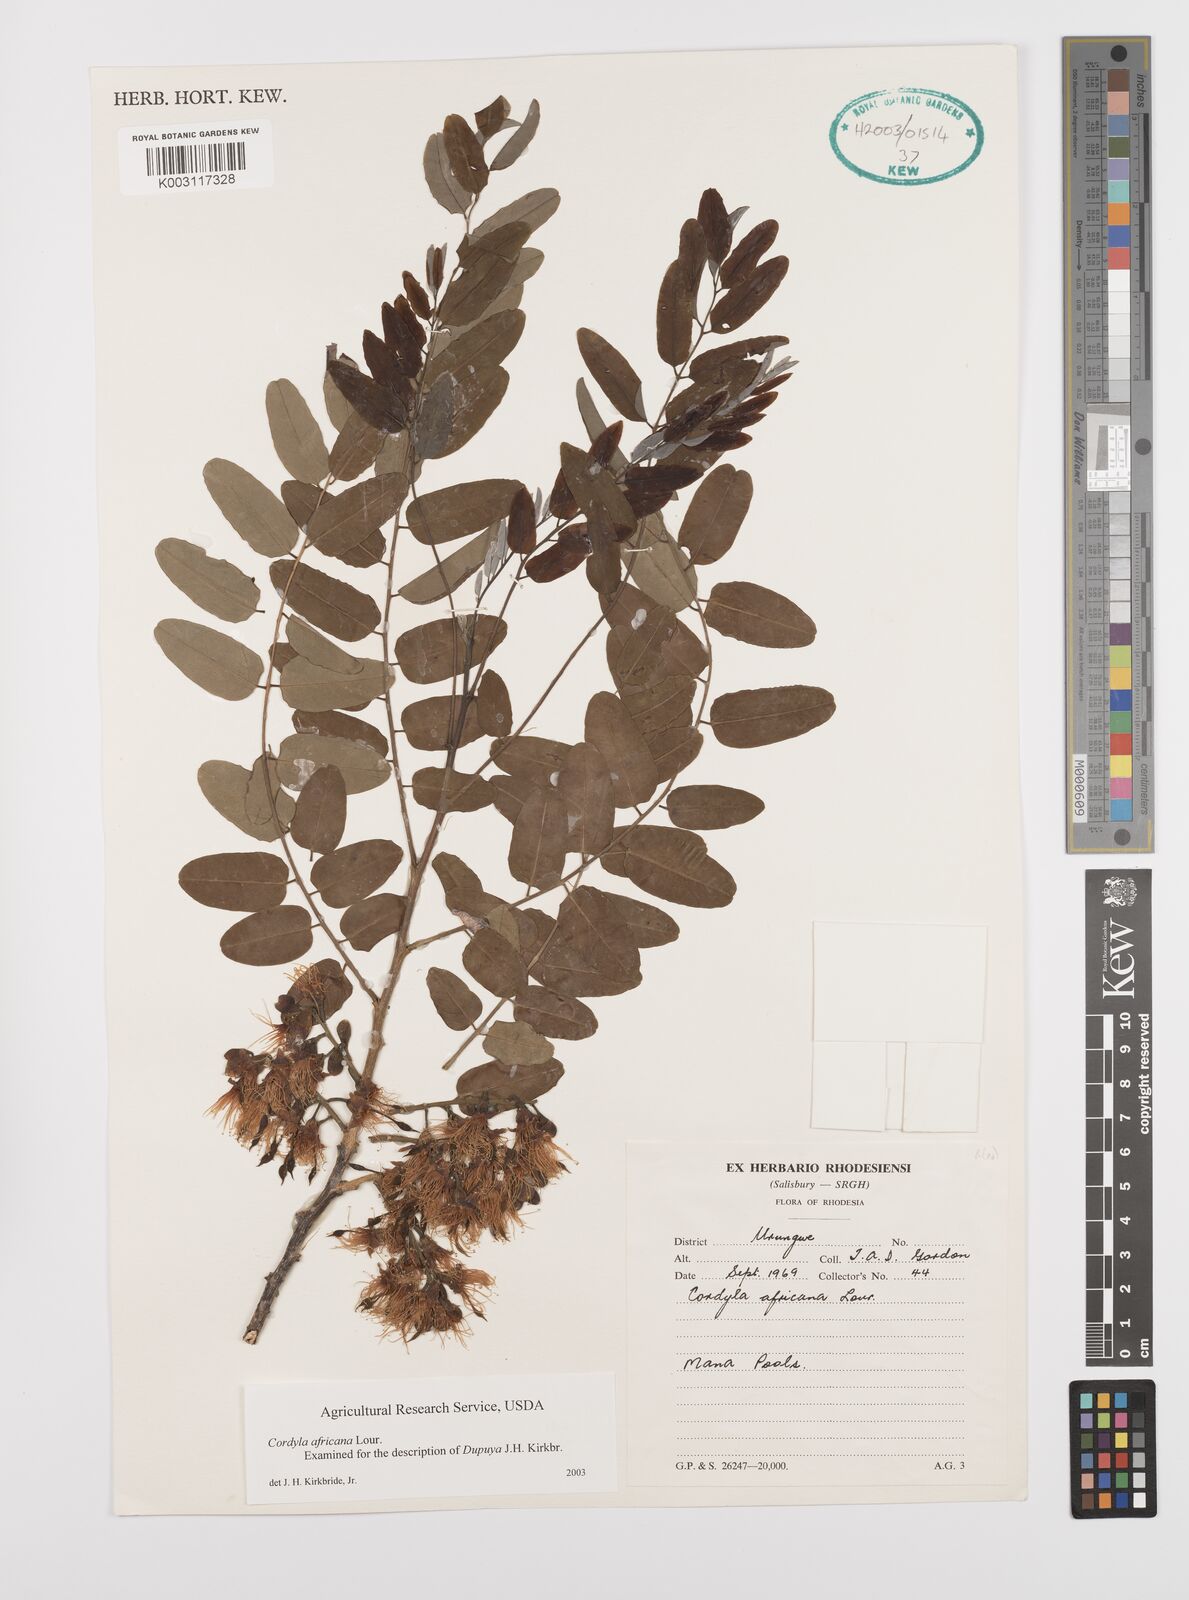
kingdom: Plantae
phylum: Tracheophyta
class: Magnoliopsida
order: Fabales
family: Fabaceae
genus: Cordyla
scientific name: Cordyla africana
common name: Wild mango
